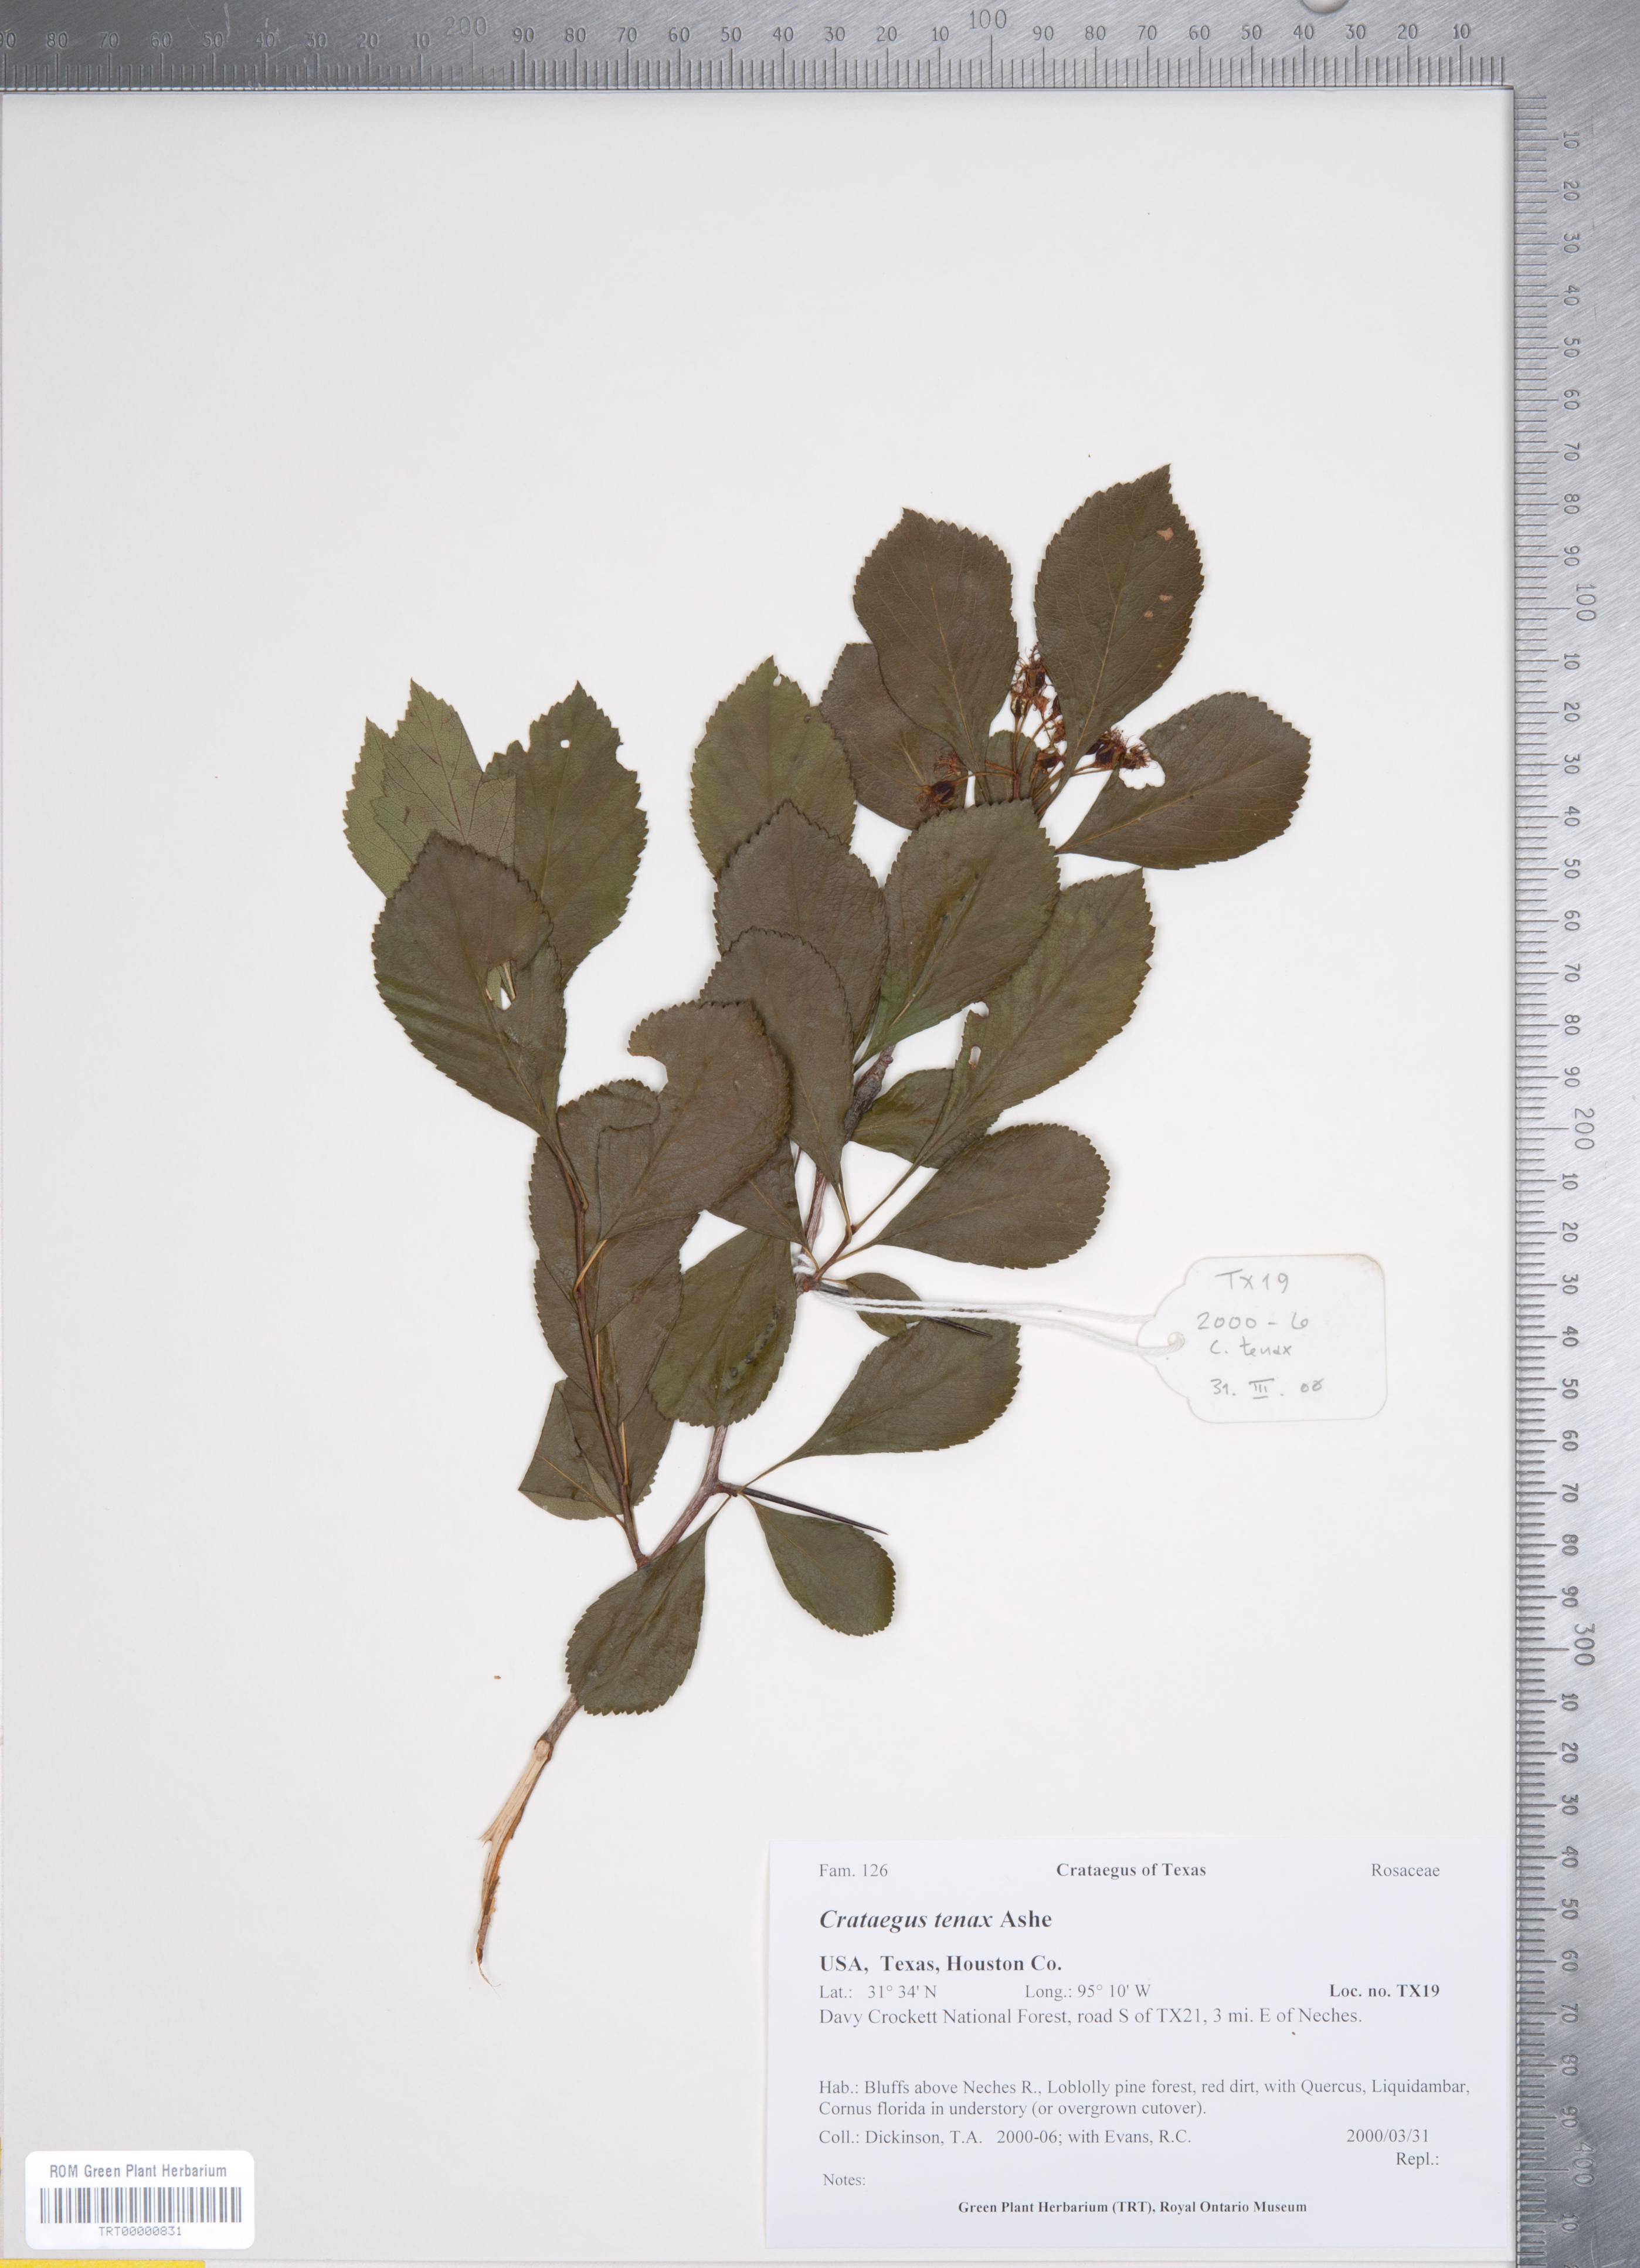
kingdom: Plantae
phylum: Tracheophyta
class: Magnoliopsida
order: Rosales
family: Rosaceae
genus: Crataegus
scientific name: Crataegus crus-galli
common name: Cockspurthorn
